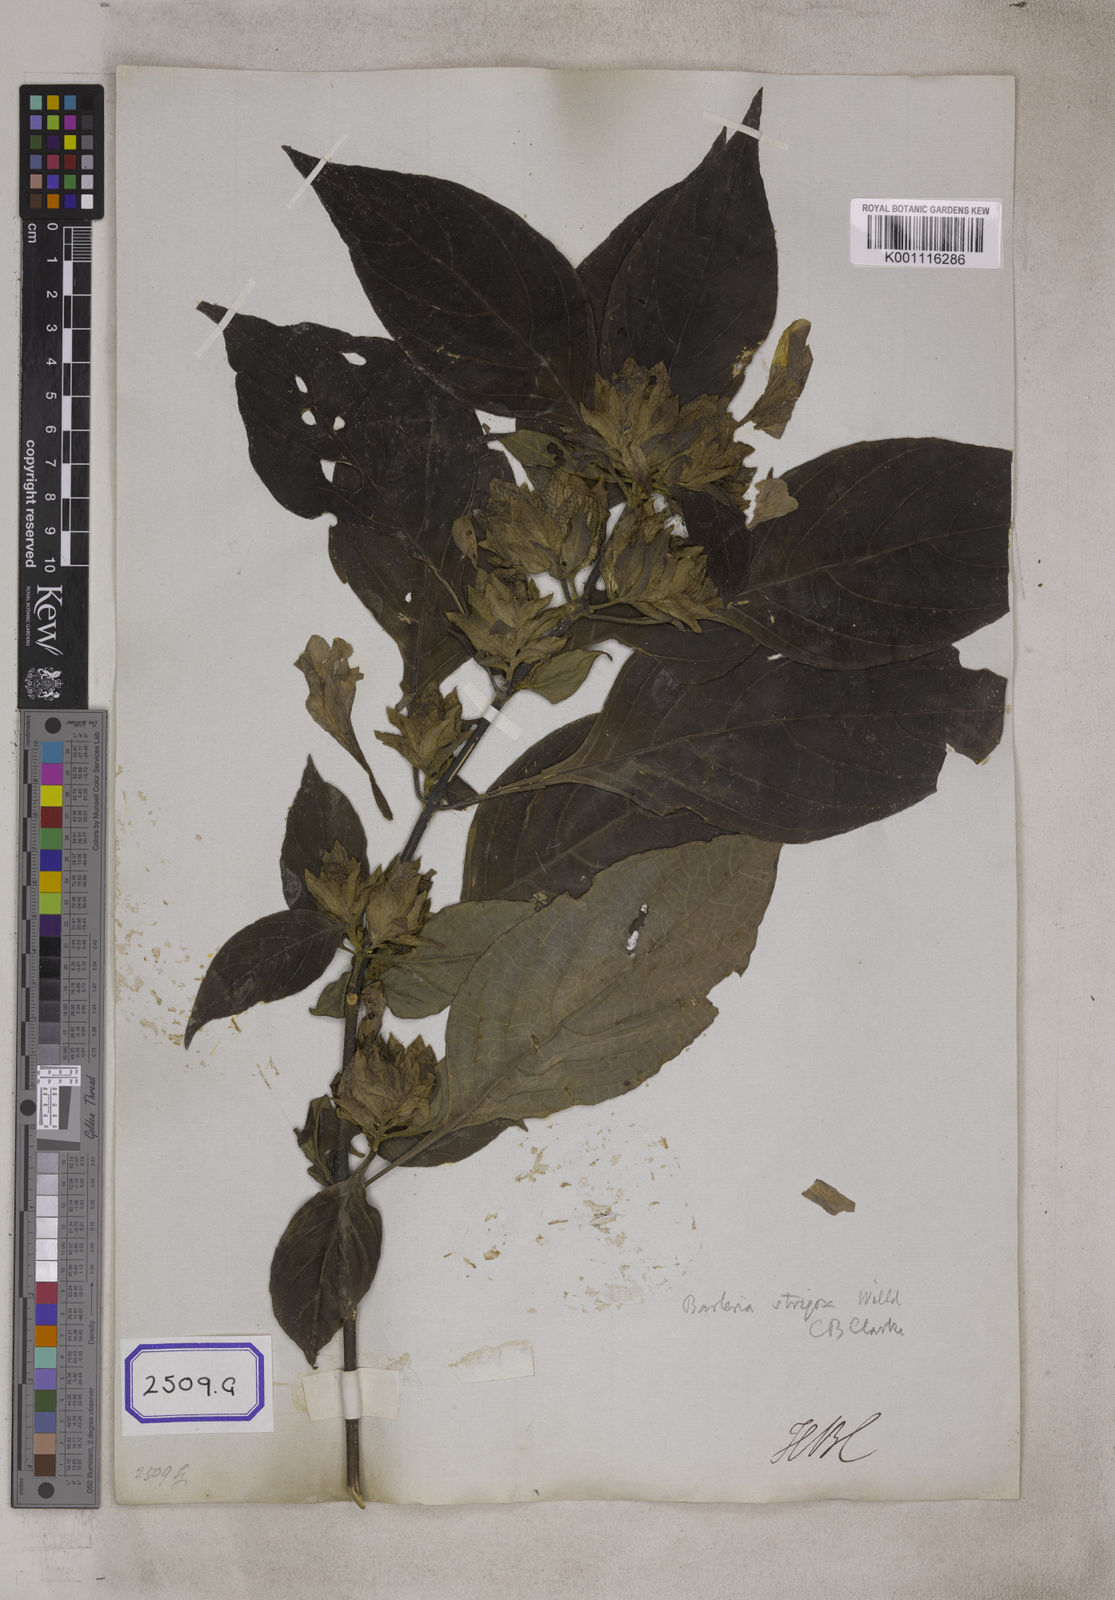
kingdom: Plantae
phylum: Tracheophyta
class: Magnoliopsida
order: Lamiales
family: Acanthaceae
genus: Barleria
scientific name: Barleria strigosa
